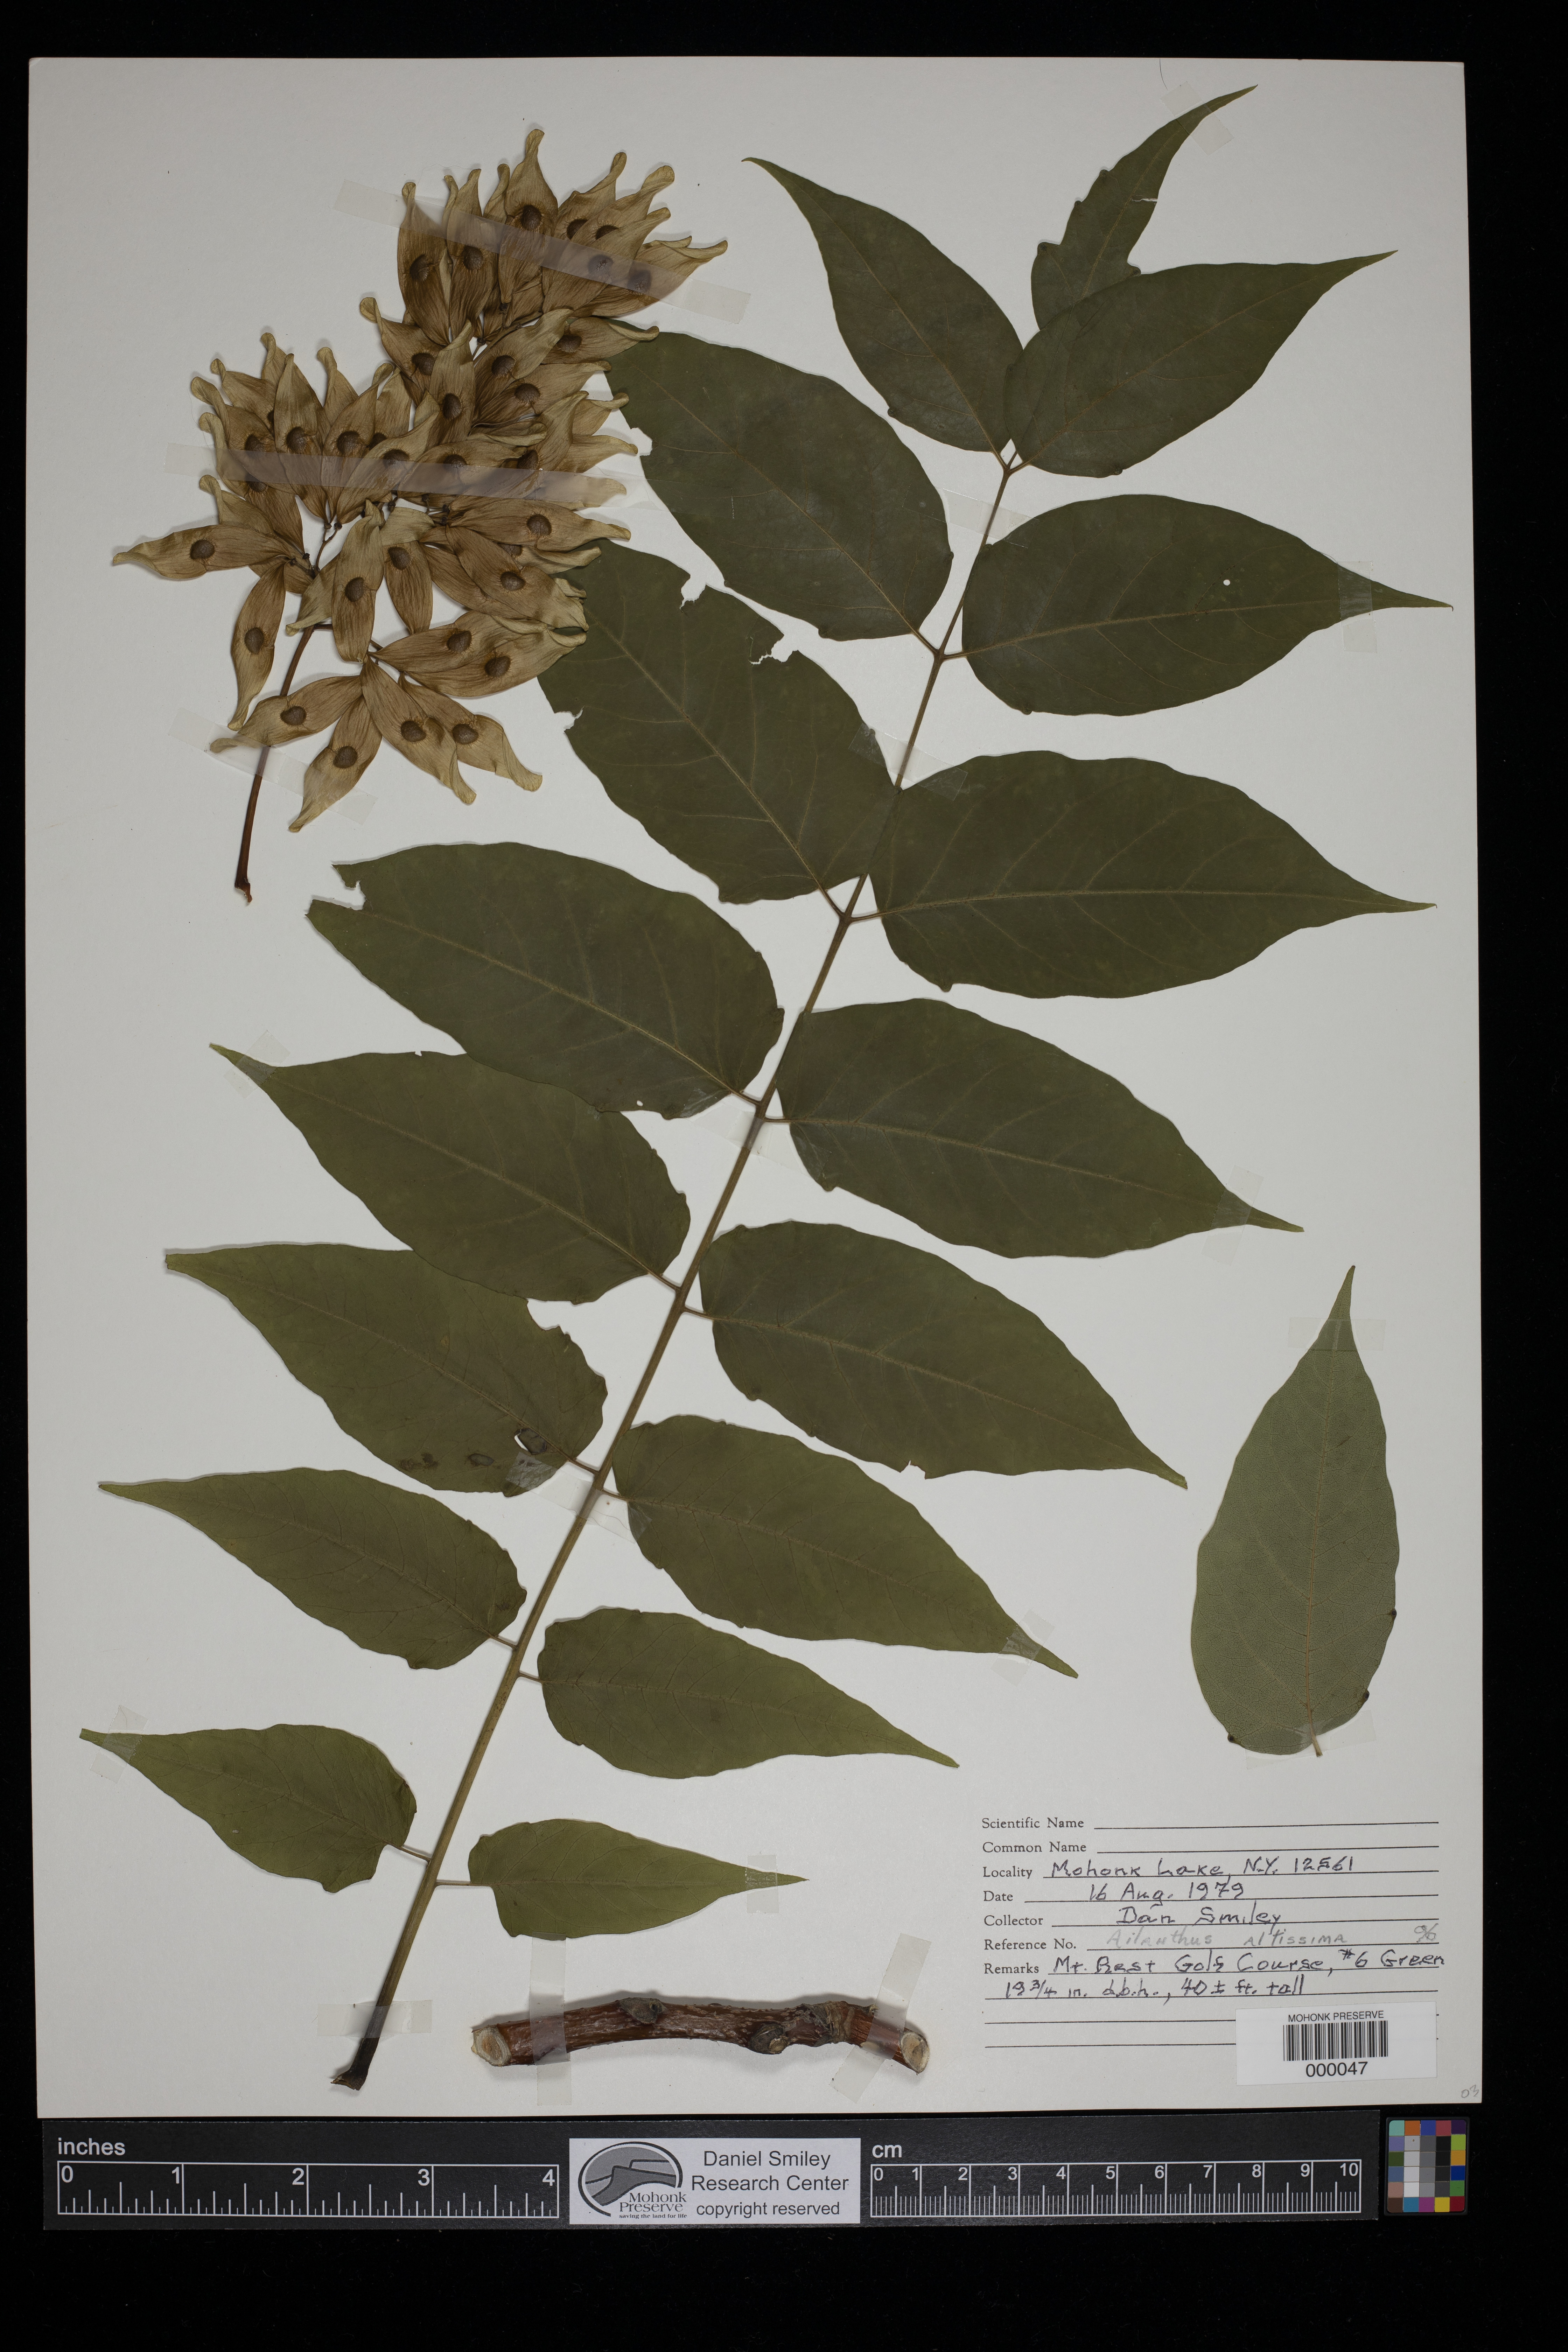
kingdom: Plantae
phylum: Tracheophyta
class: Magnoliopsida
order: Sapindales
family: Simaroubaceae
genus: Ailanthus
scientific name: Ailanthus altissima
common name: Tree-of-heaven
